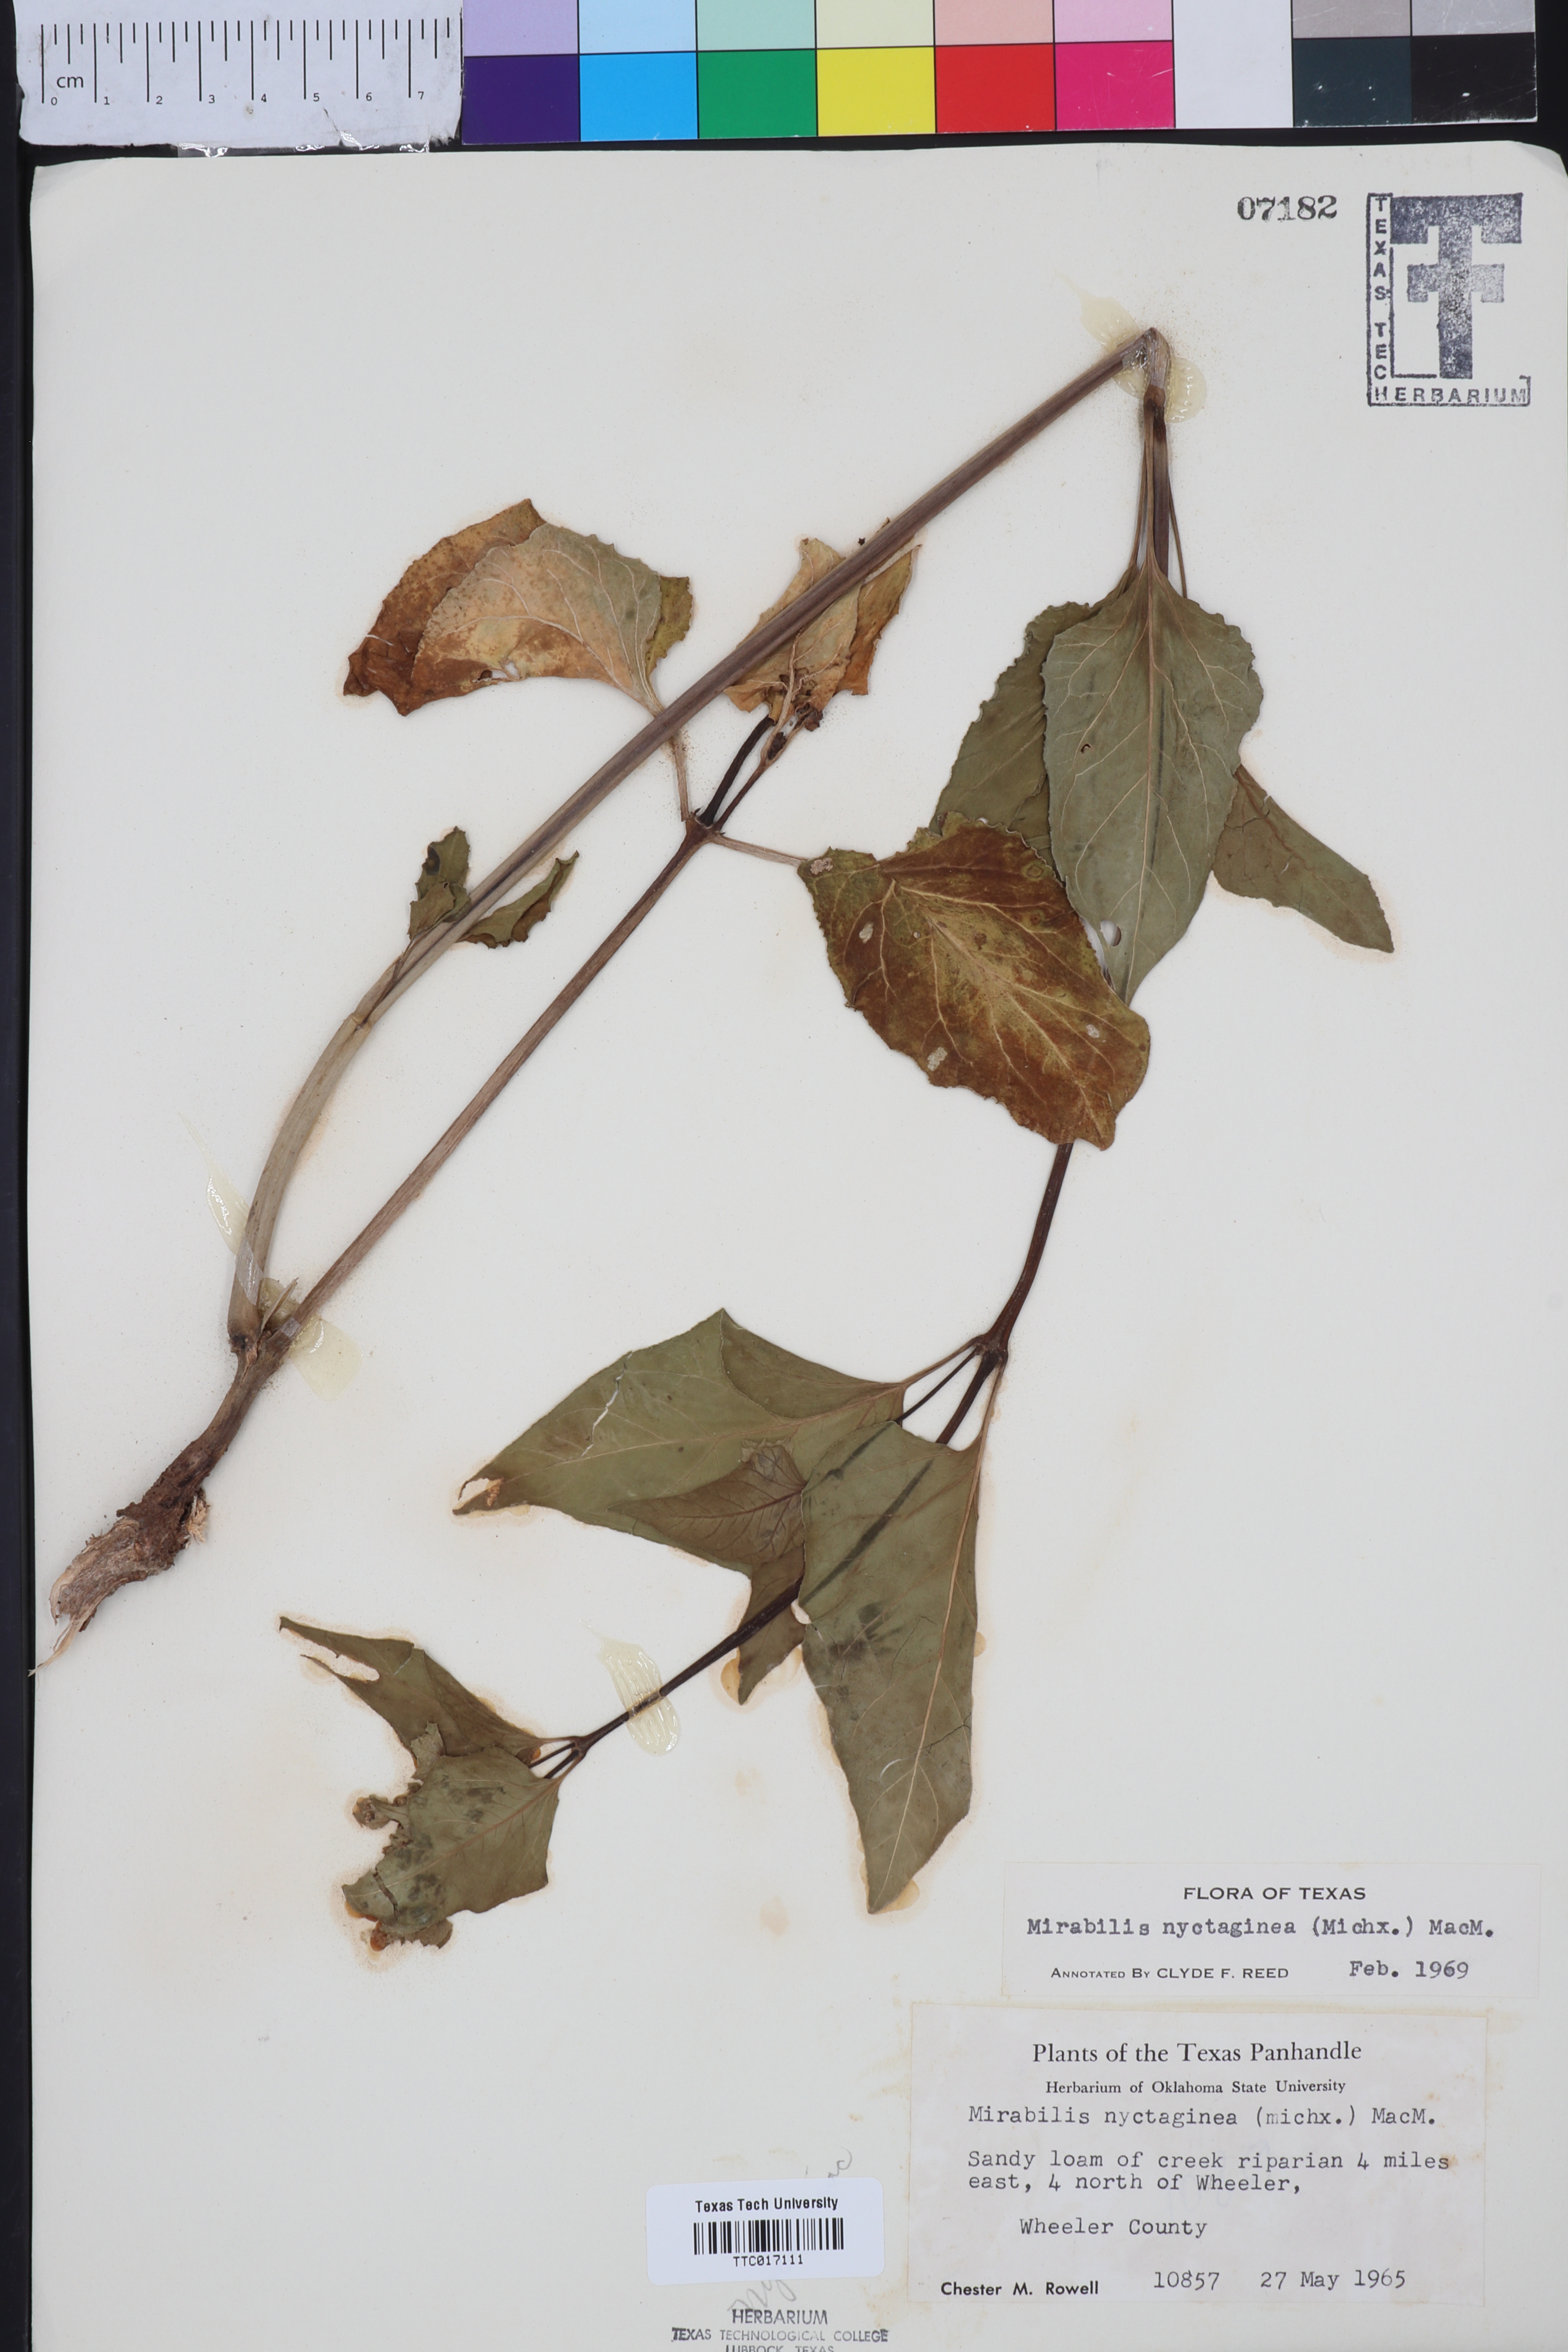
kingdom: Plantae
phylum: Tracheophyta
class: Magnoliopsida
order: Caryophyllales
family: Nyctaginaceae
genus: Mirabilis
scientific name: Mirabilis nyctaginea
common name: Umbrella wort
